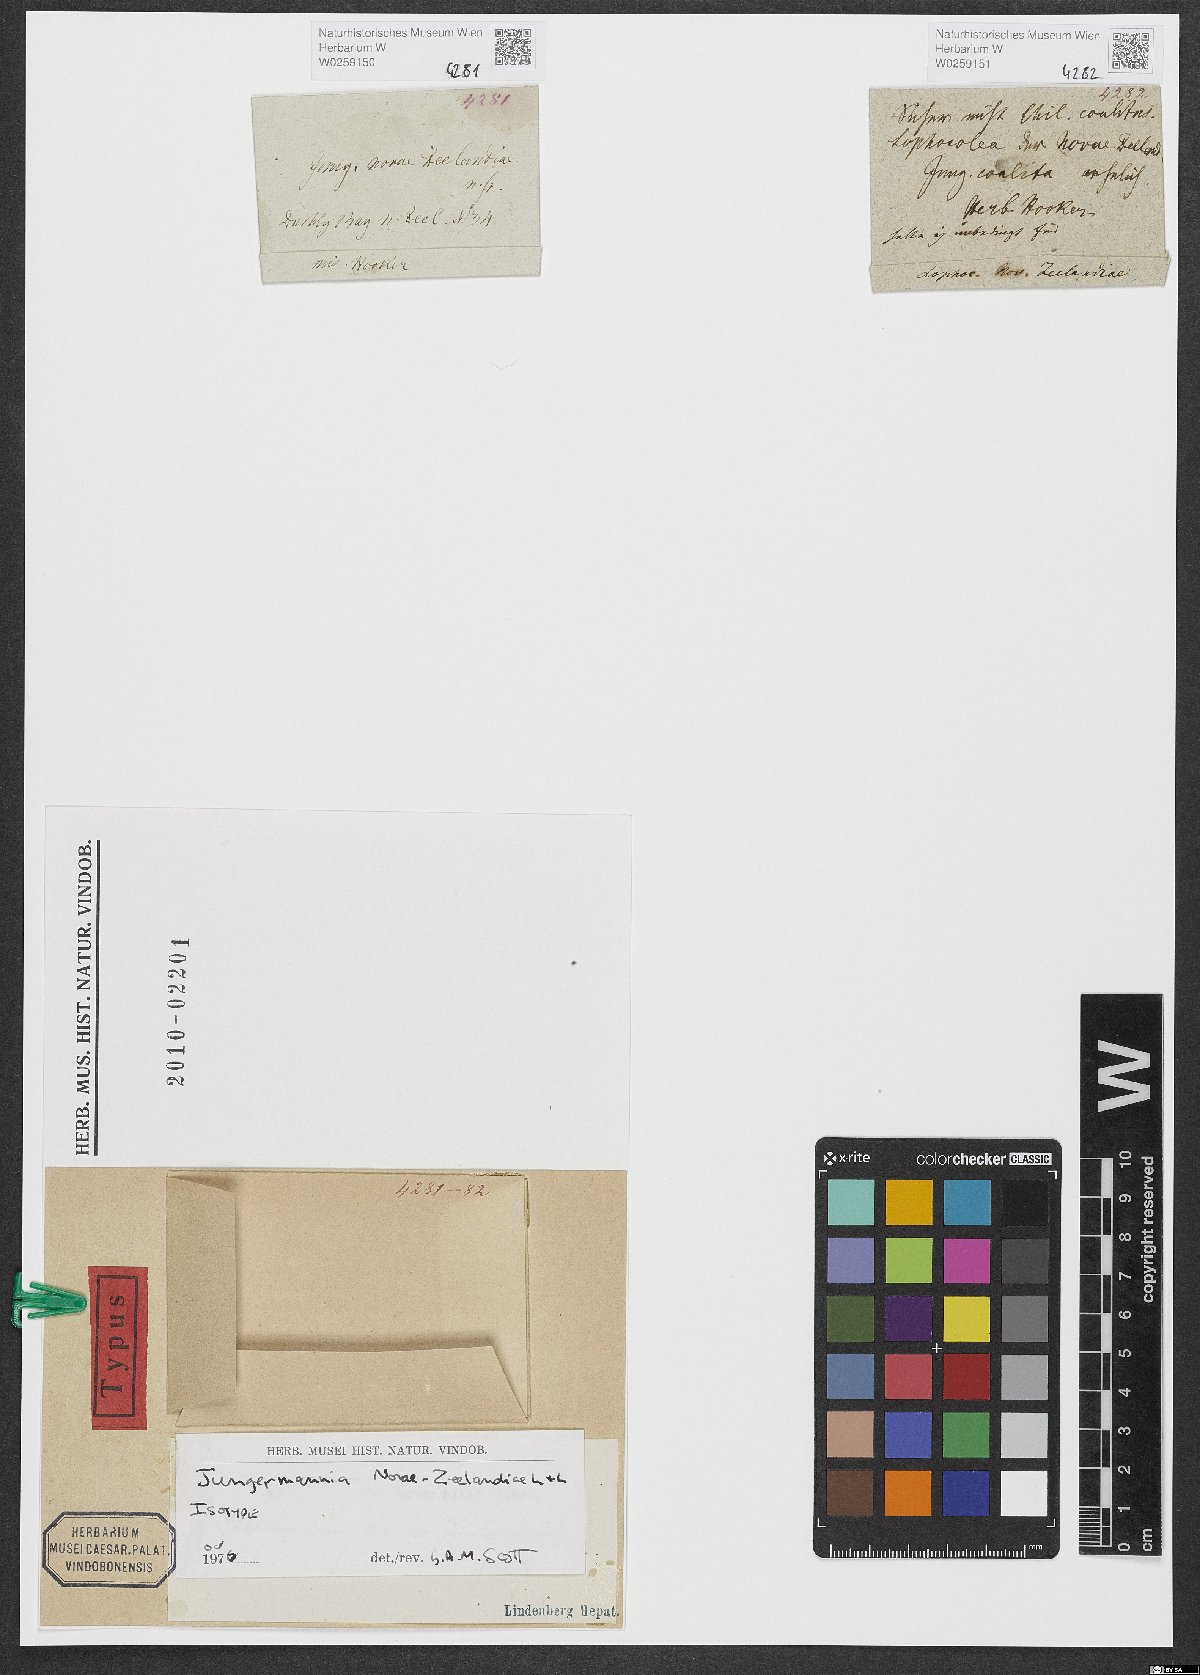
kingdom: Plantae
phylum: Marchantiophyta
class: Jungermanniopsida
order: Jungermanniales
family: Lophocoleaceae
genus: Lophocolea
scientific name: Lophocolea novae-zeelandiae
